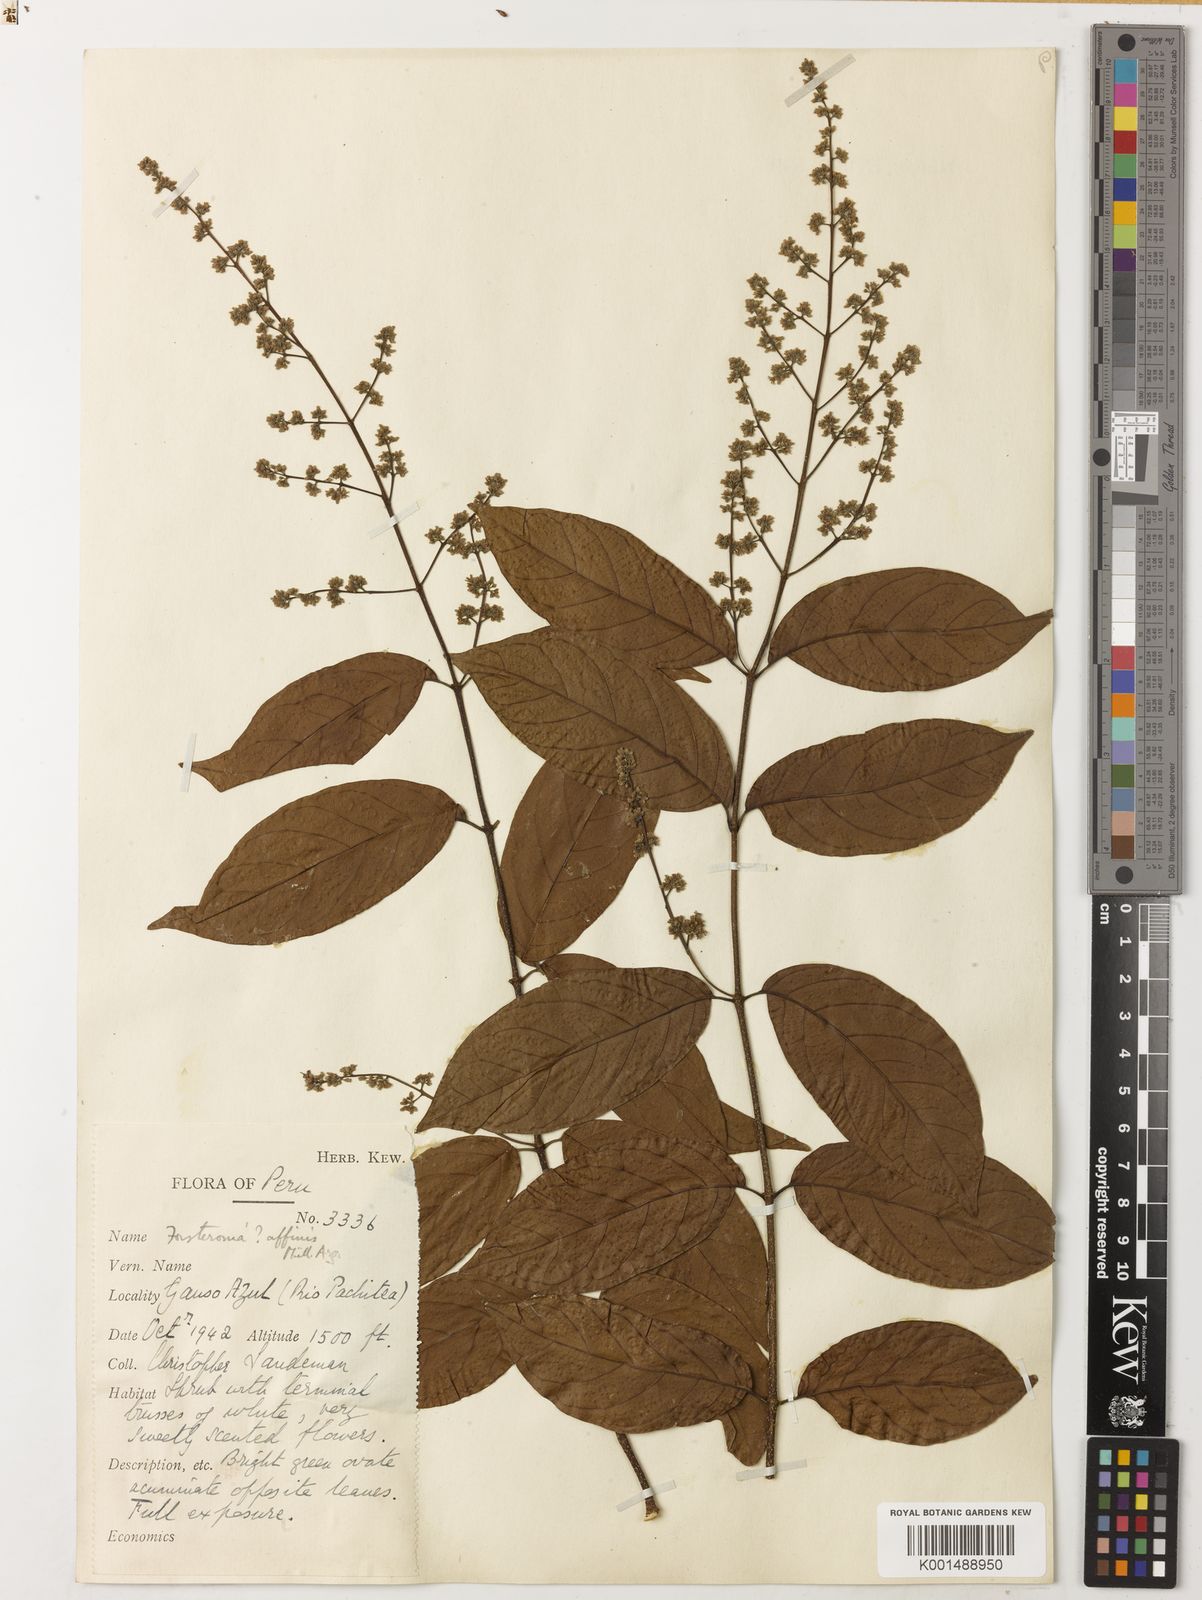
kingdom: Plantae
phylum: Tracheophyta
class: Magnoliopsida
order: Gentianales
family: Apocynaceae
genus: Forsteronia
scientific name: Forsteronia affinis
